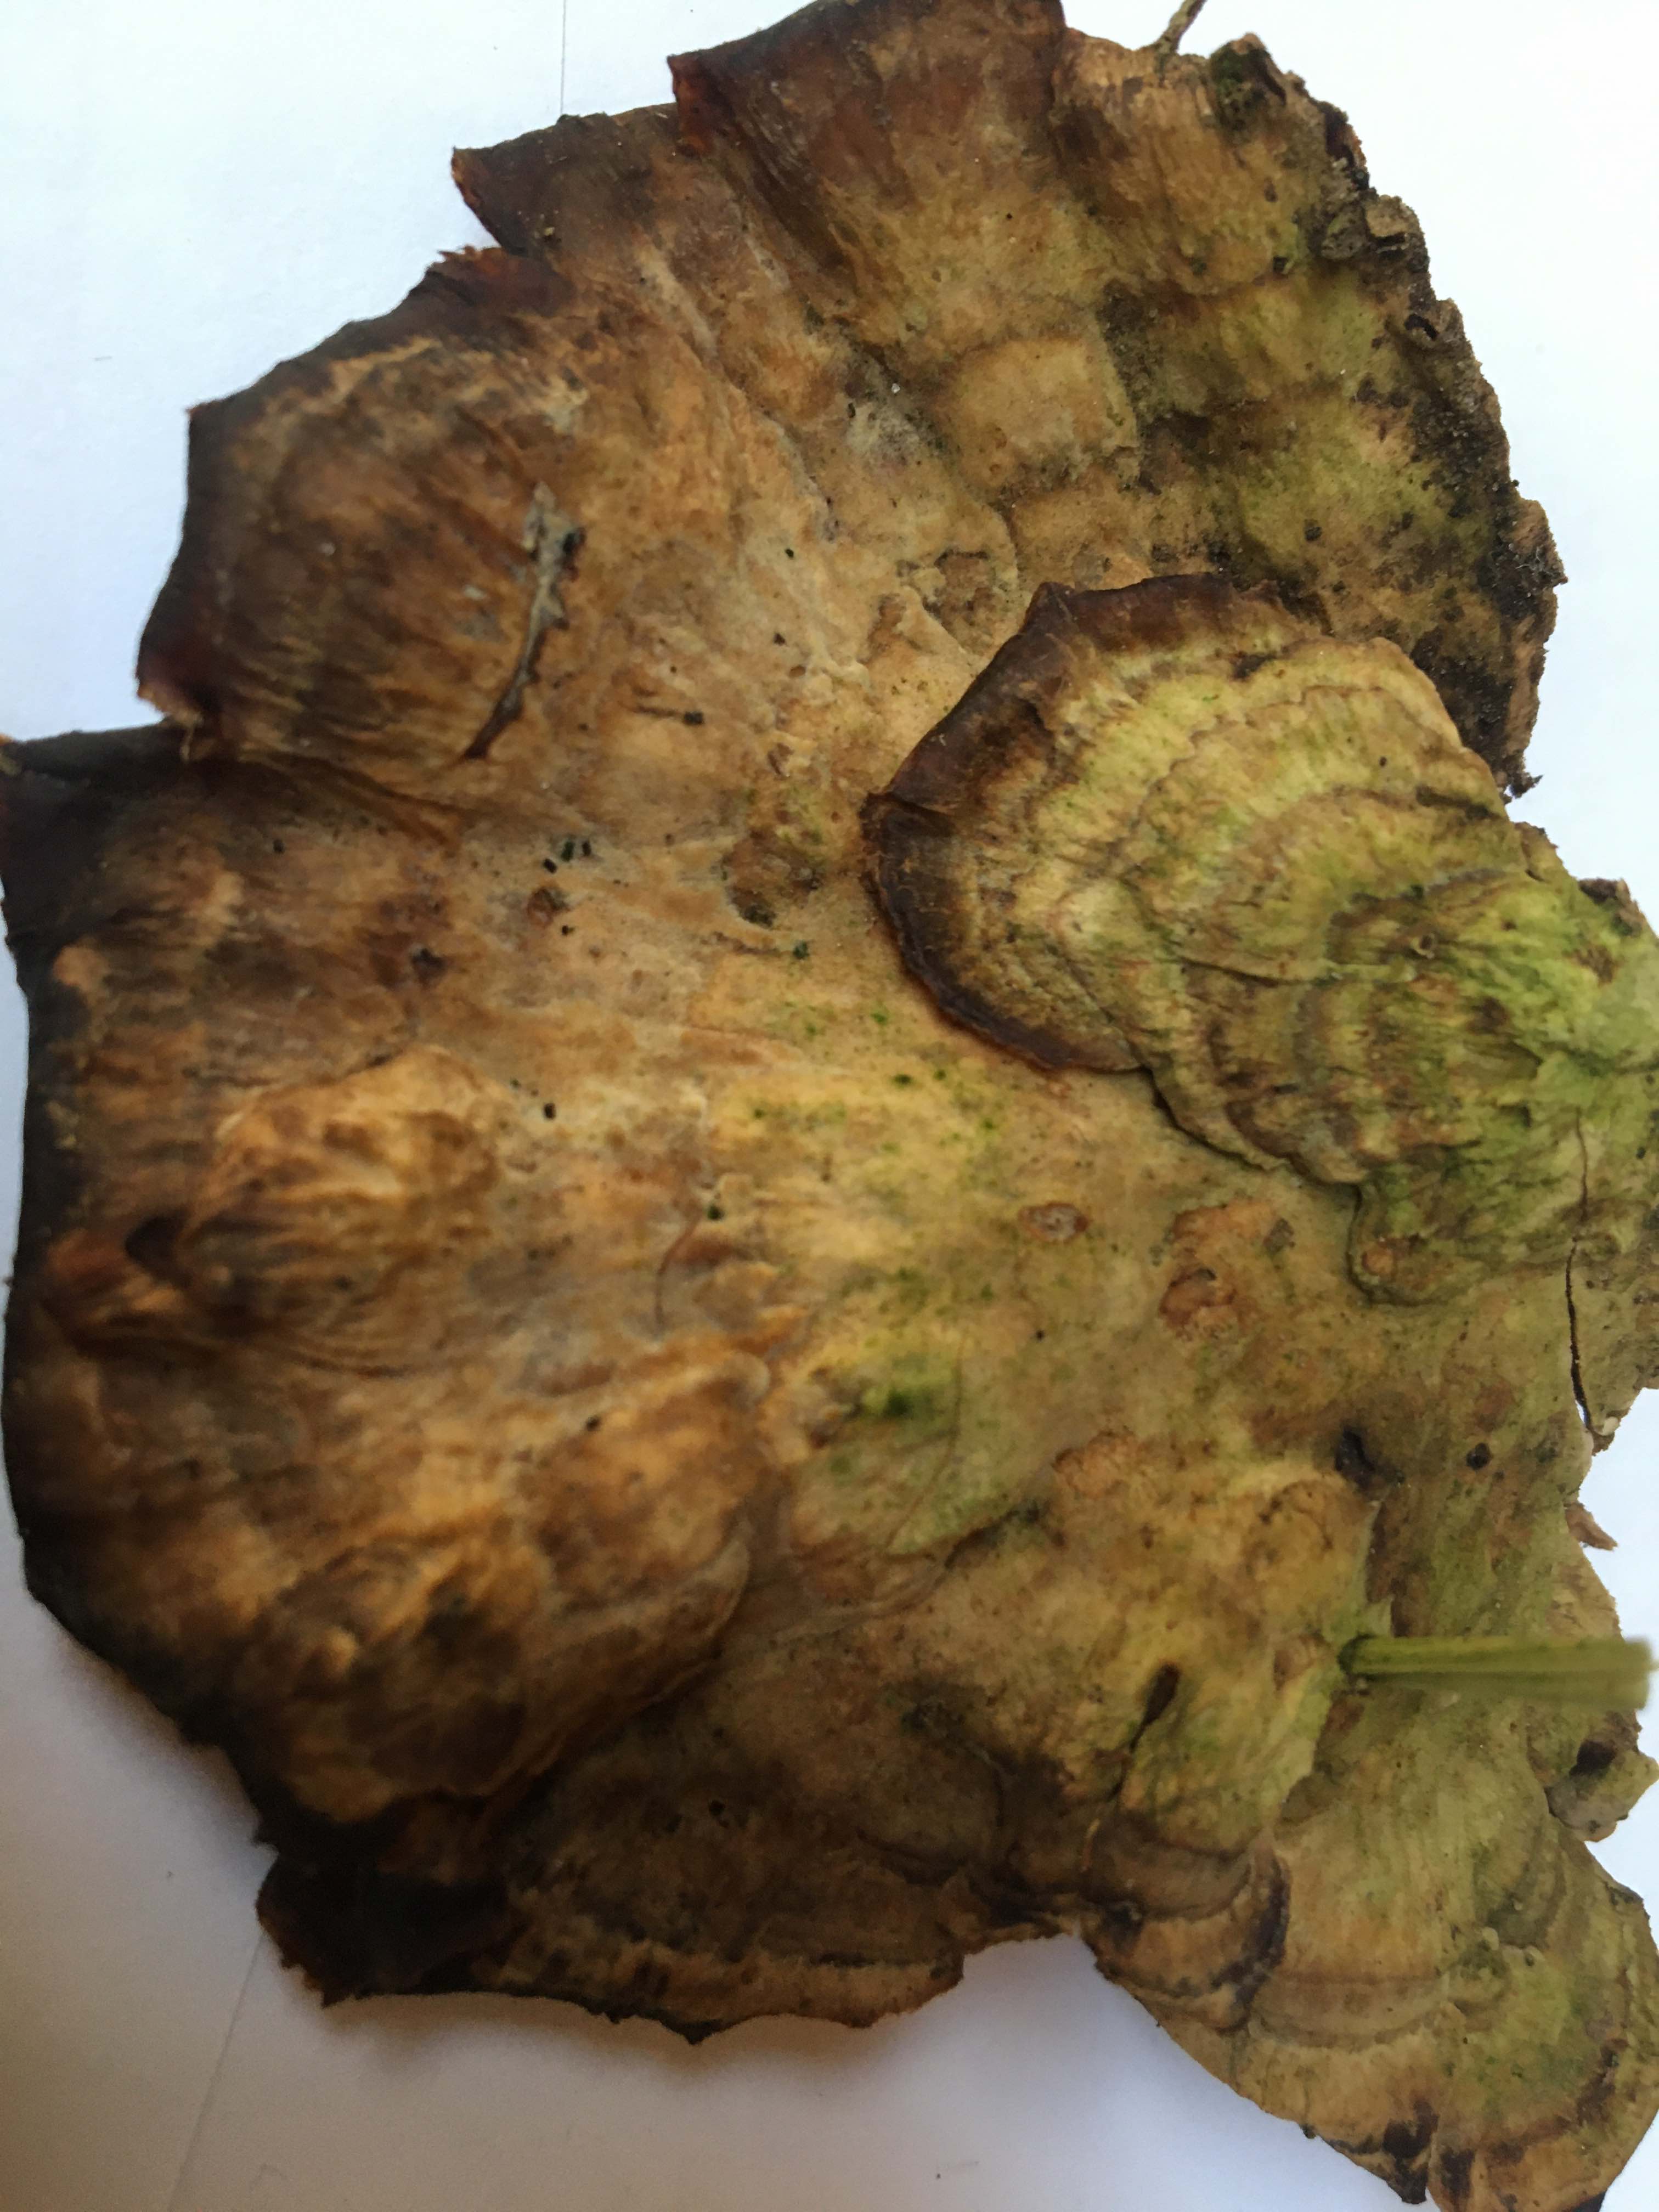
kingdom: Fungi
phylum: Basidiomycota
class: Agaricomycetes
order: Polyporales
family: Polyporaceae
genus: Trametes
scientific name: Trametes versicolor
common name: broget læderporesvamp
